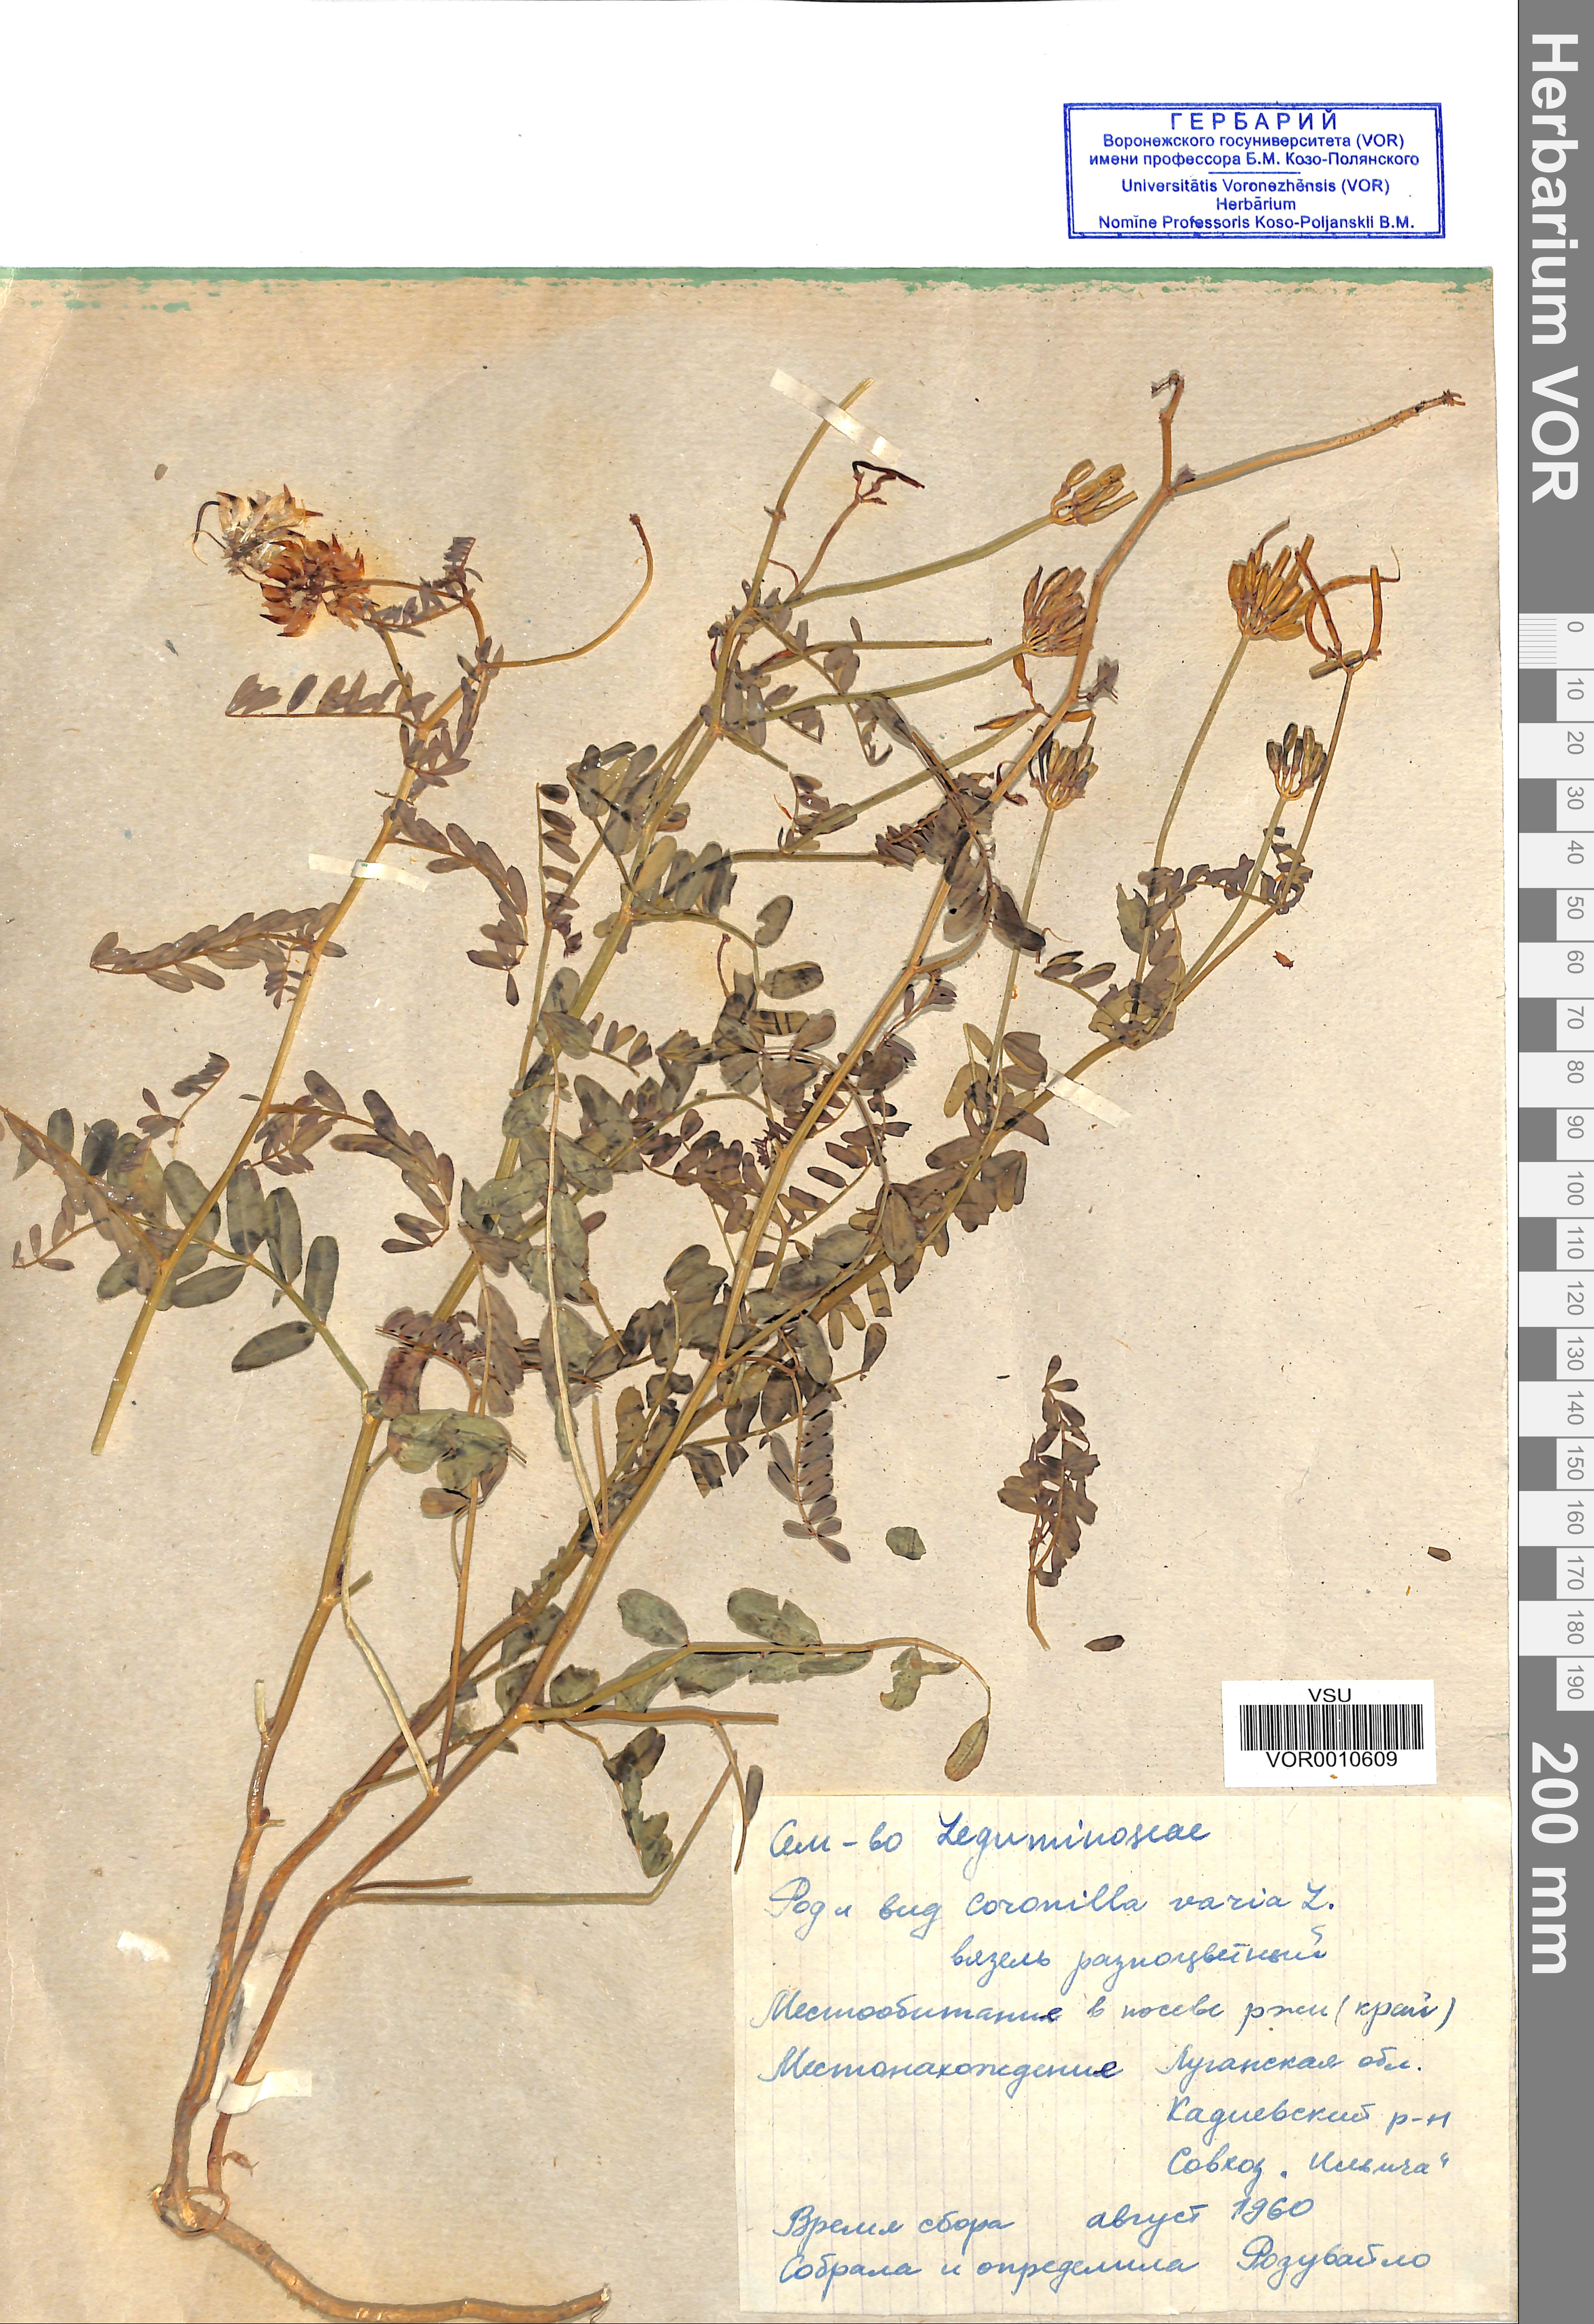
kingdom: Plantae
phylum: Tracheophyta
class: Magnoliopsida
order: Fabales
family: Fabaceae
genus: Coronilla
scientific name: Coronilla varia
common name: Crownvetch
